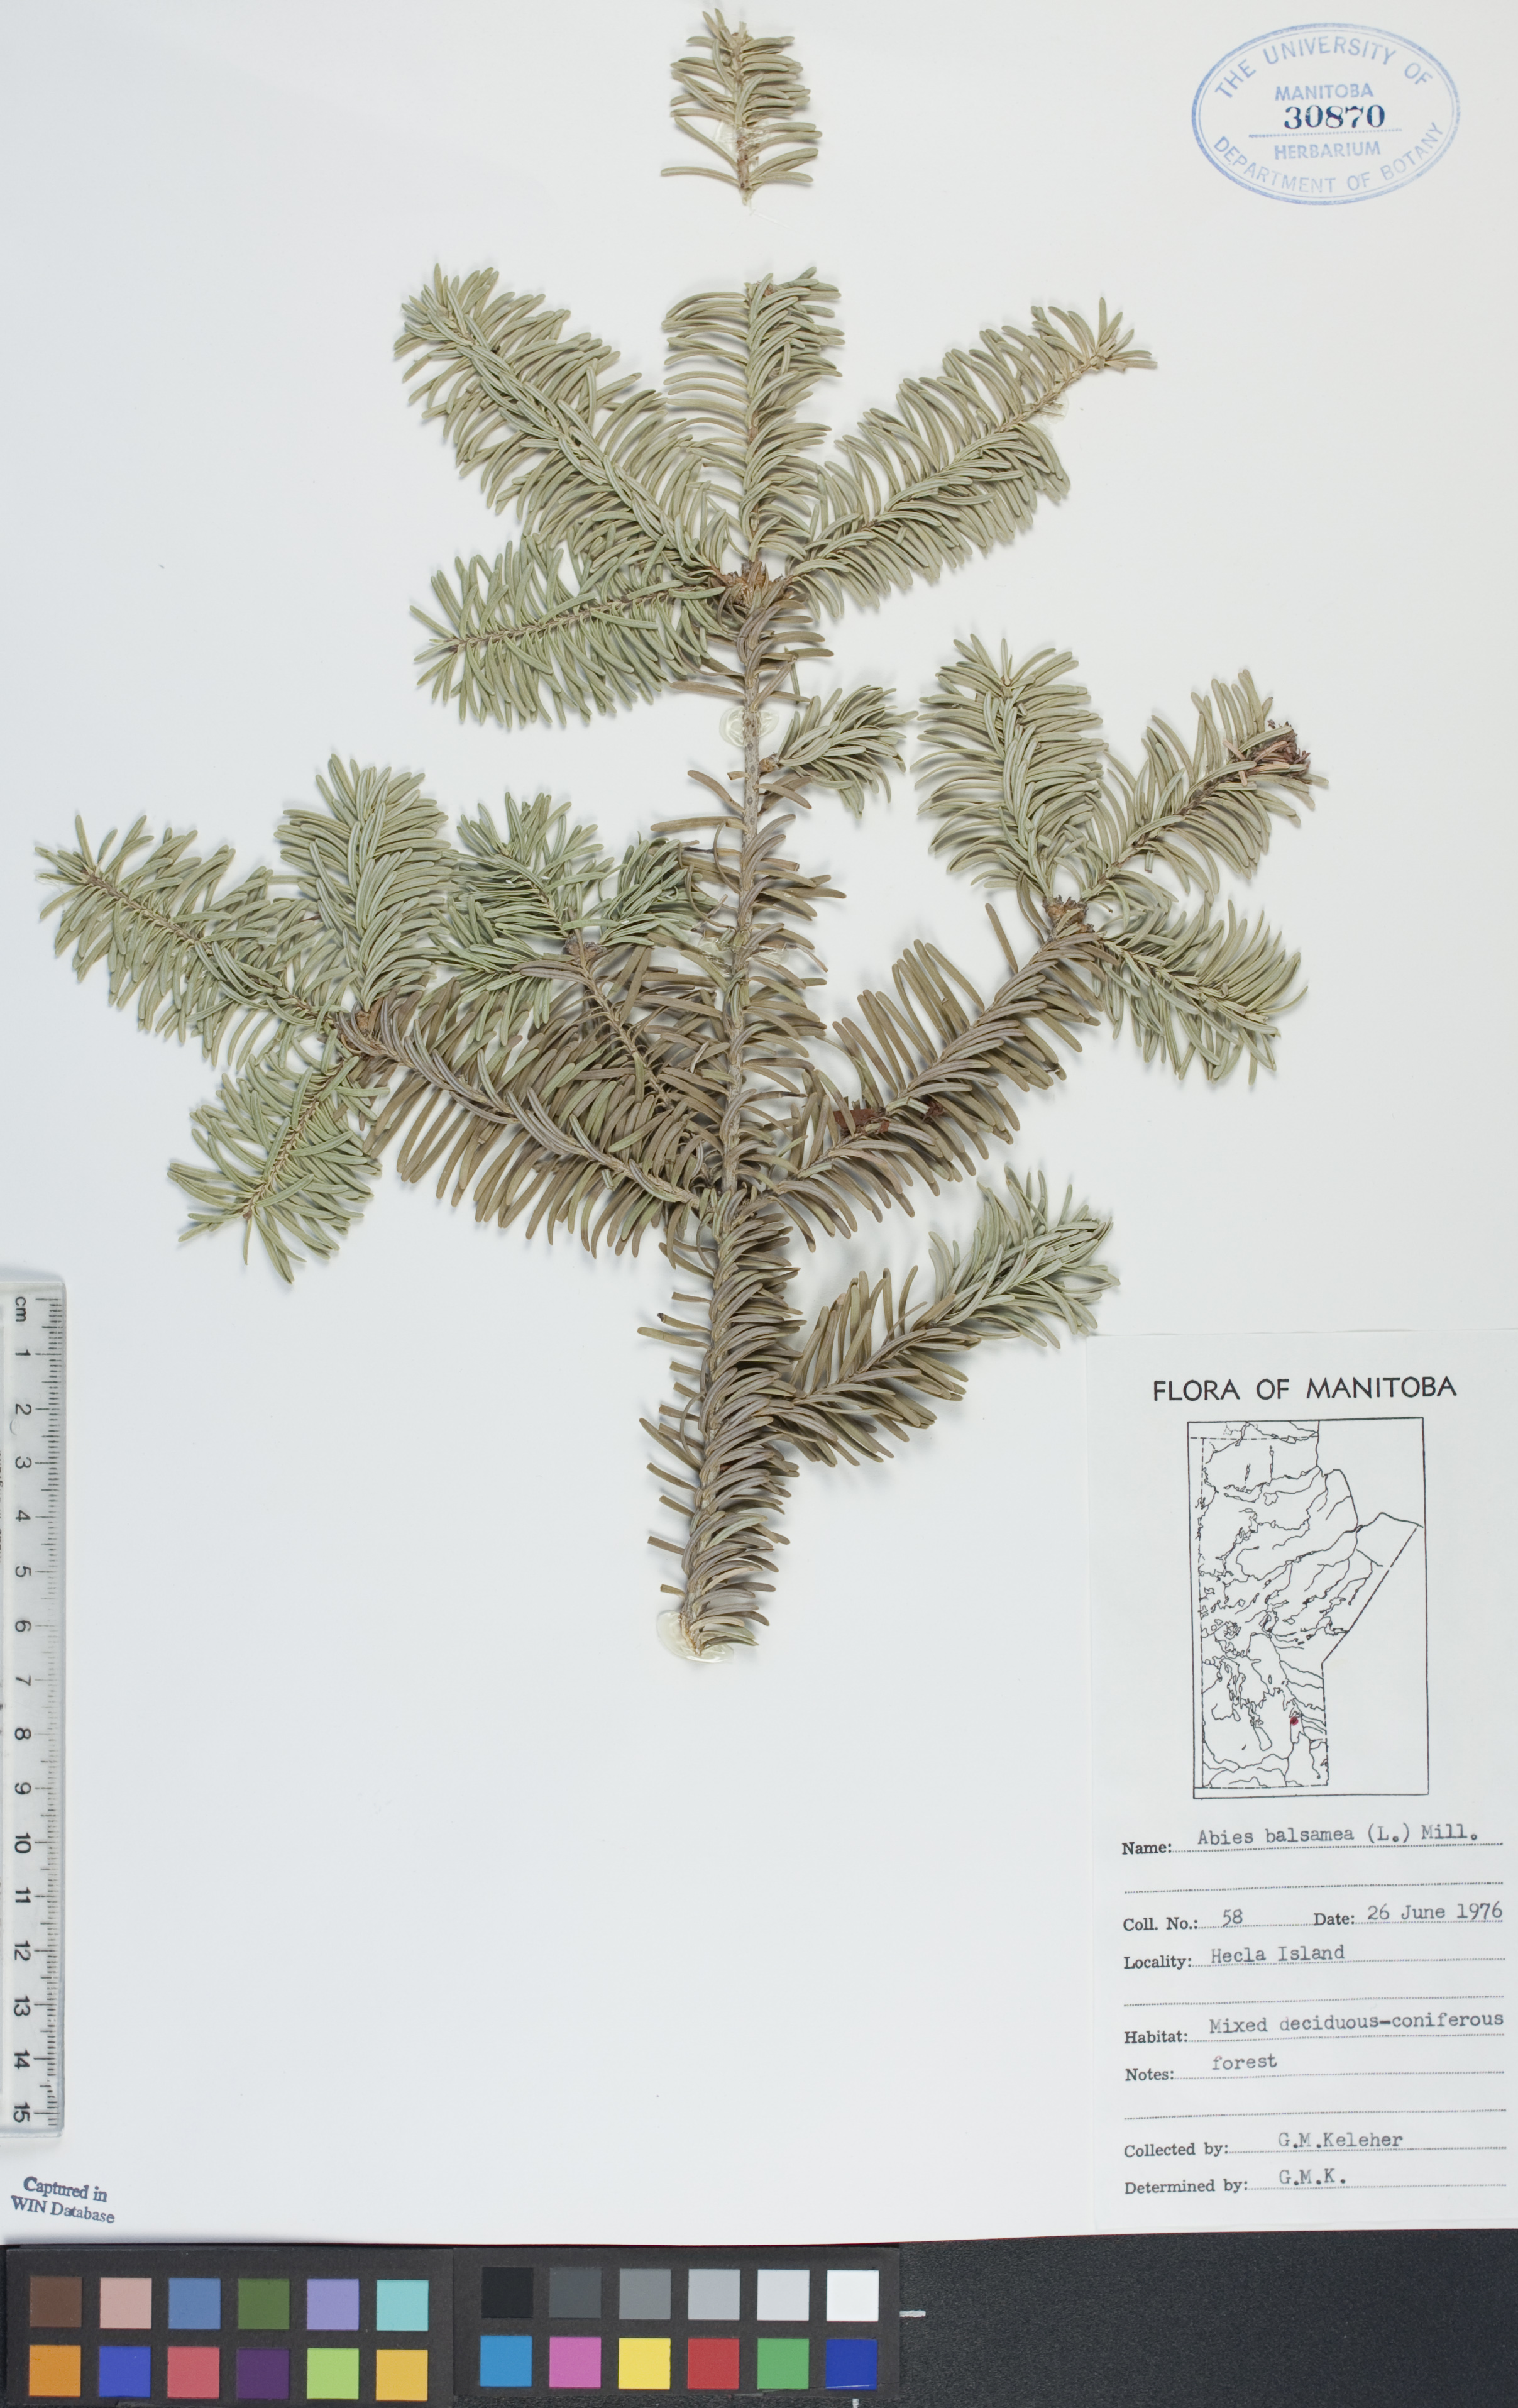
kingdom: Plantae
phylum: Tracheophyta
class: Pinopsida
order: Pinales
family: Pinaceae
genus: Abies
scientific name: Abies balsamea
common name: Balsam fir
